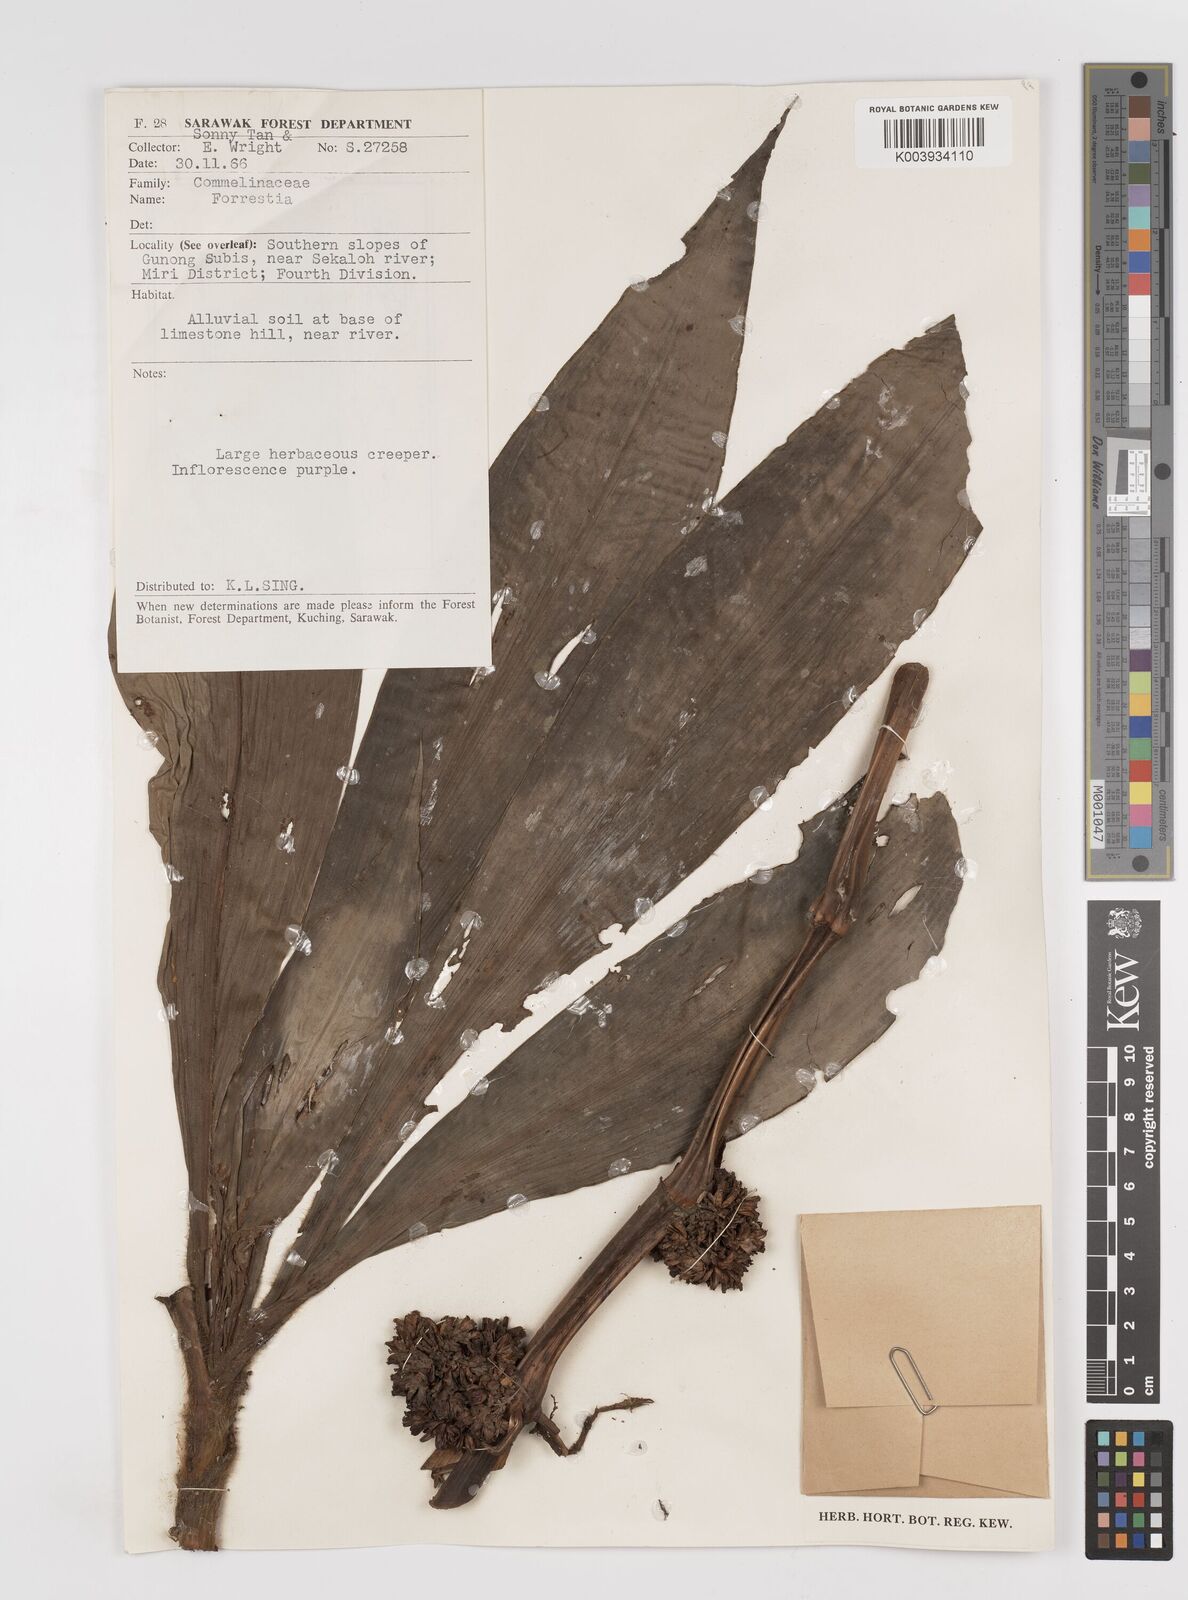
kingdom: Plantae
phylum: Tracheophyta
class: Liliopsida
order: Commelinales
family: Commelinaceae
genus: Amischotolype
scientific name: Amischotolype
